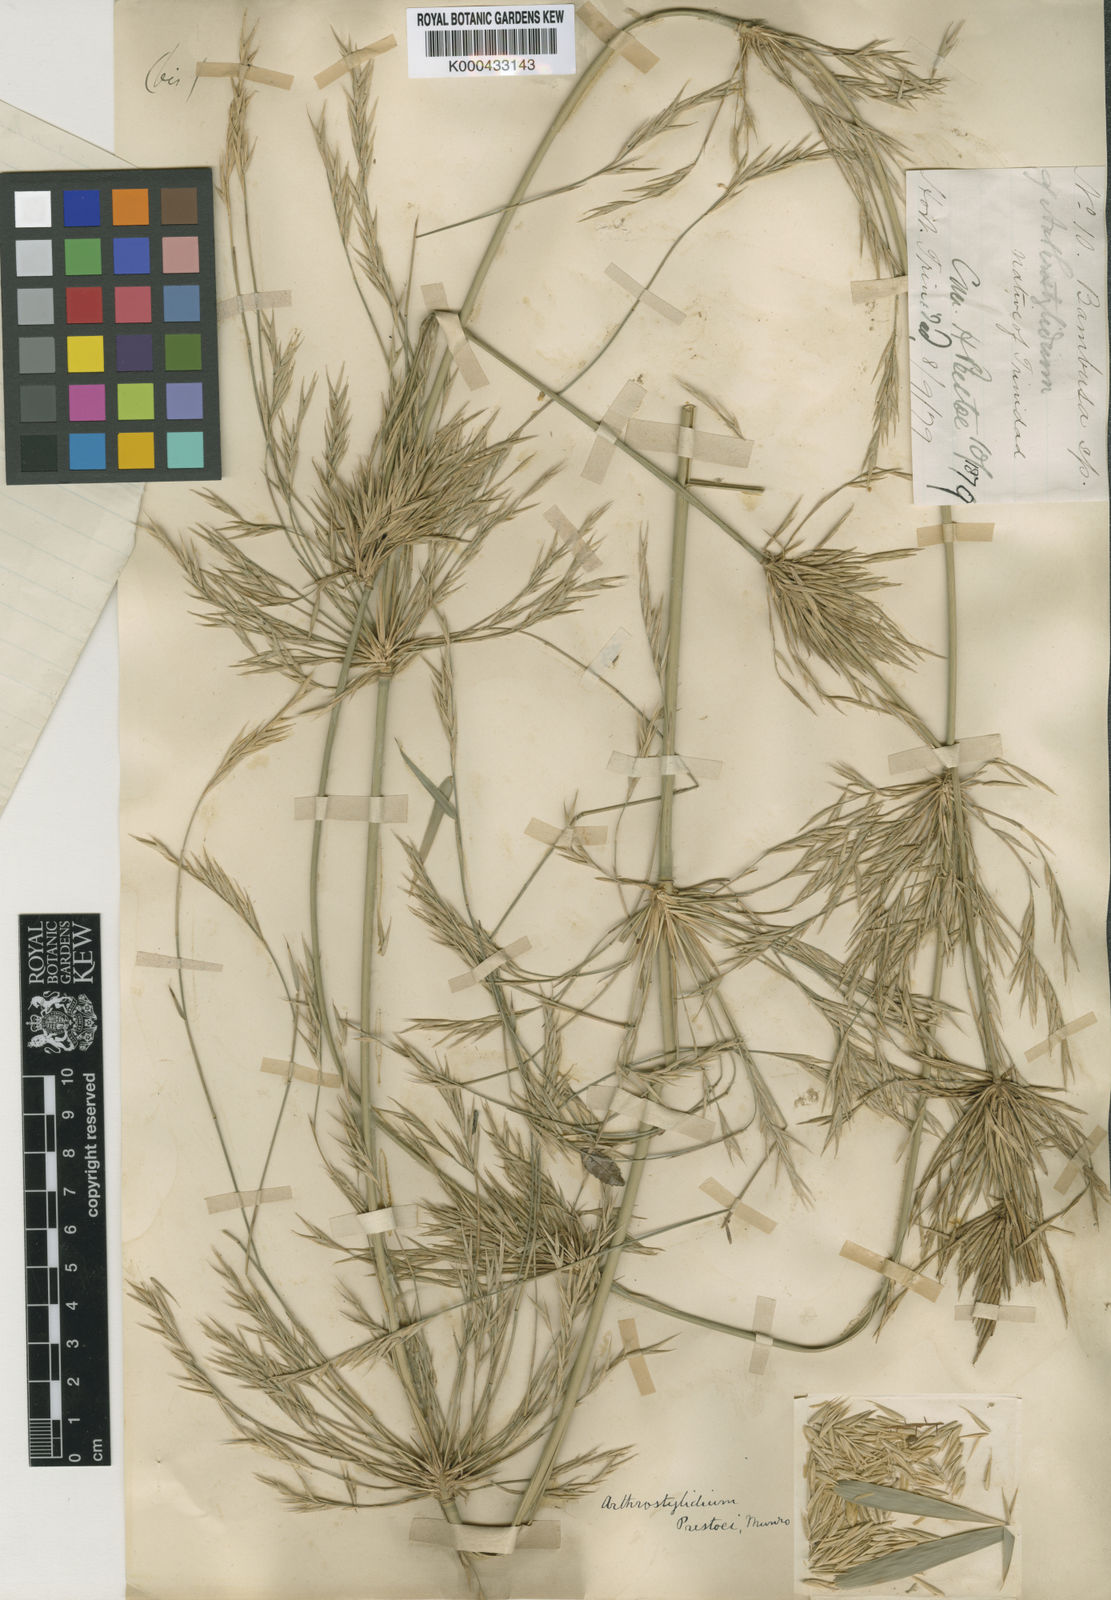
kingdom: Plantae
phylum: Tracheophyta
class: Liliopsida
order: Poales
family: Poaceae
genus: Rhipidocladum
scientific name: Rhipidocladum prestoei
